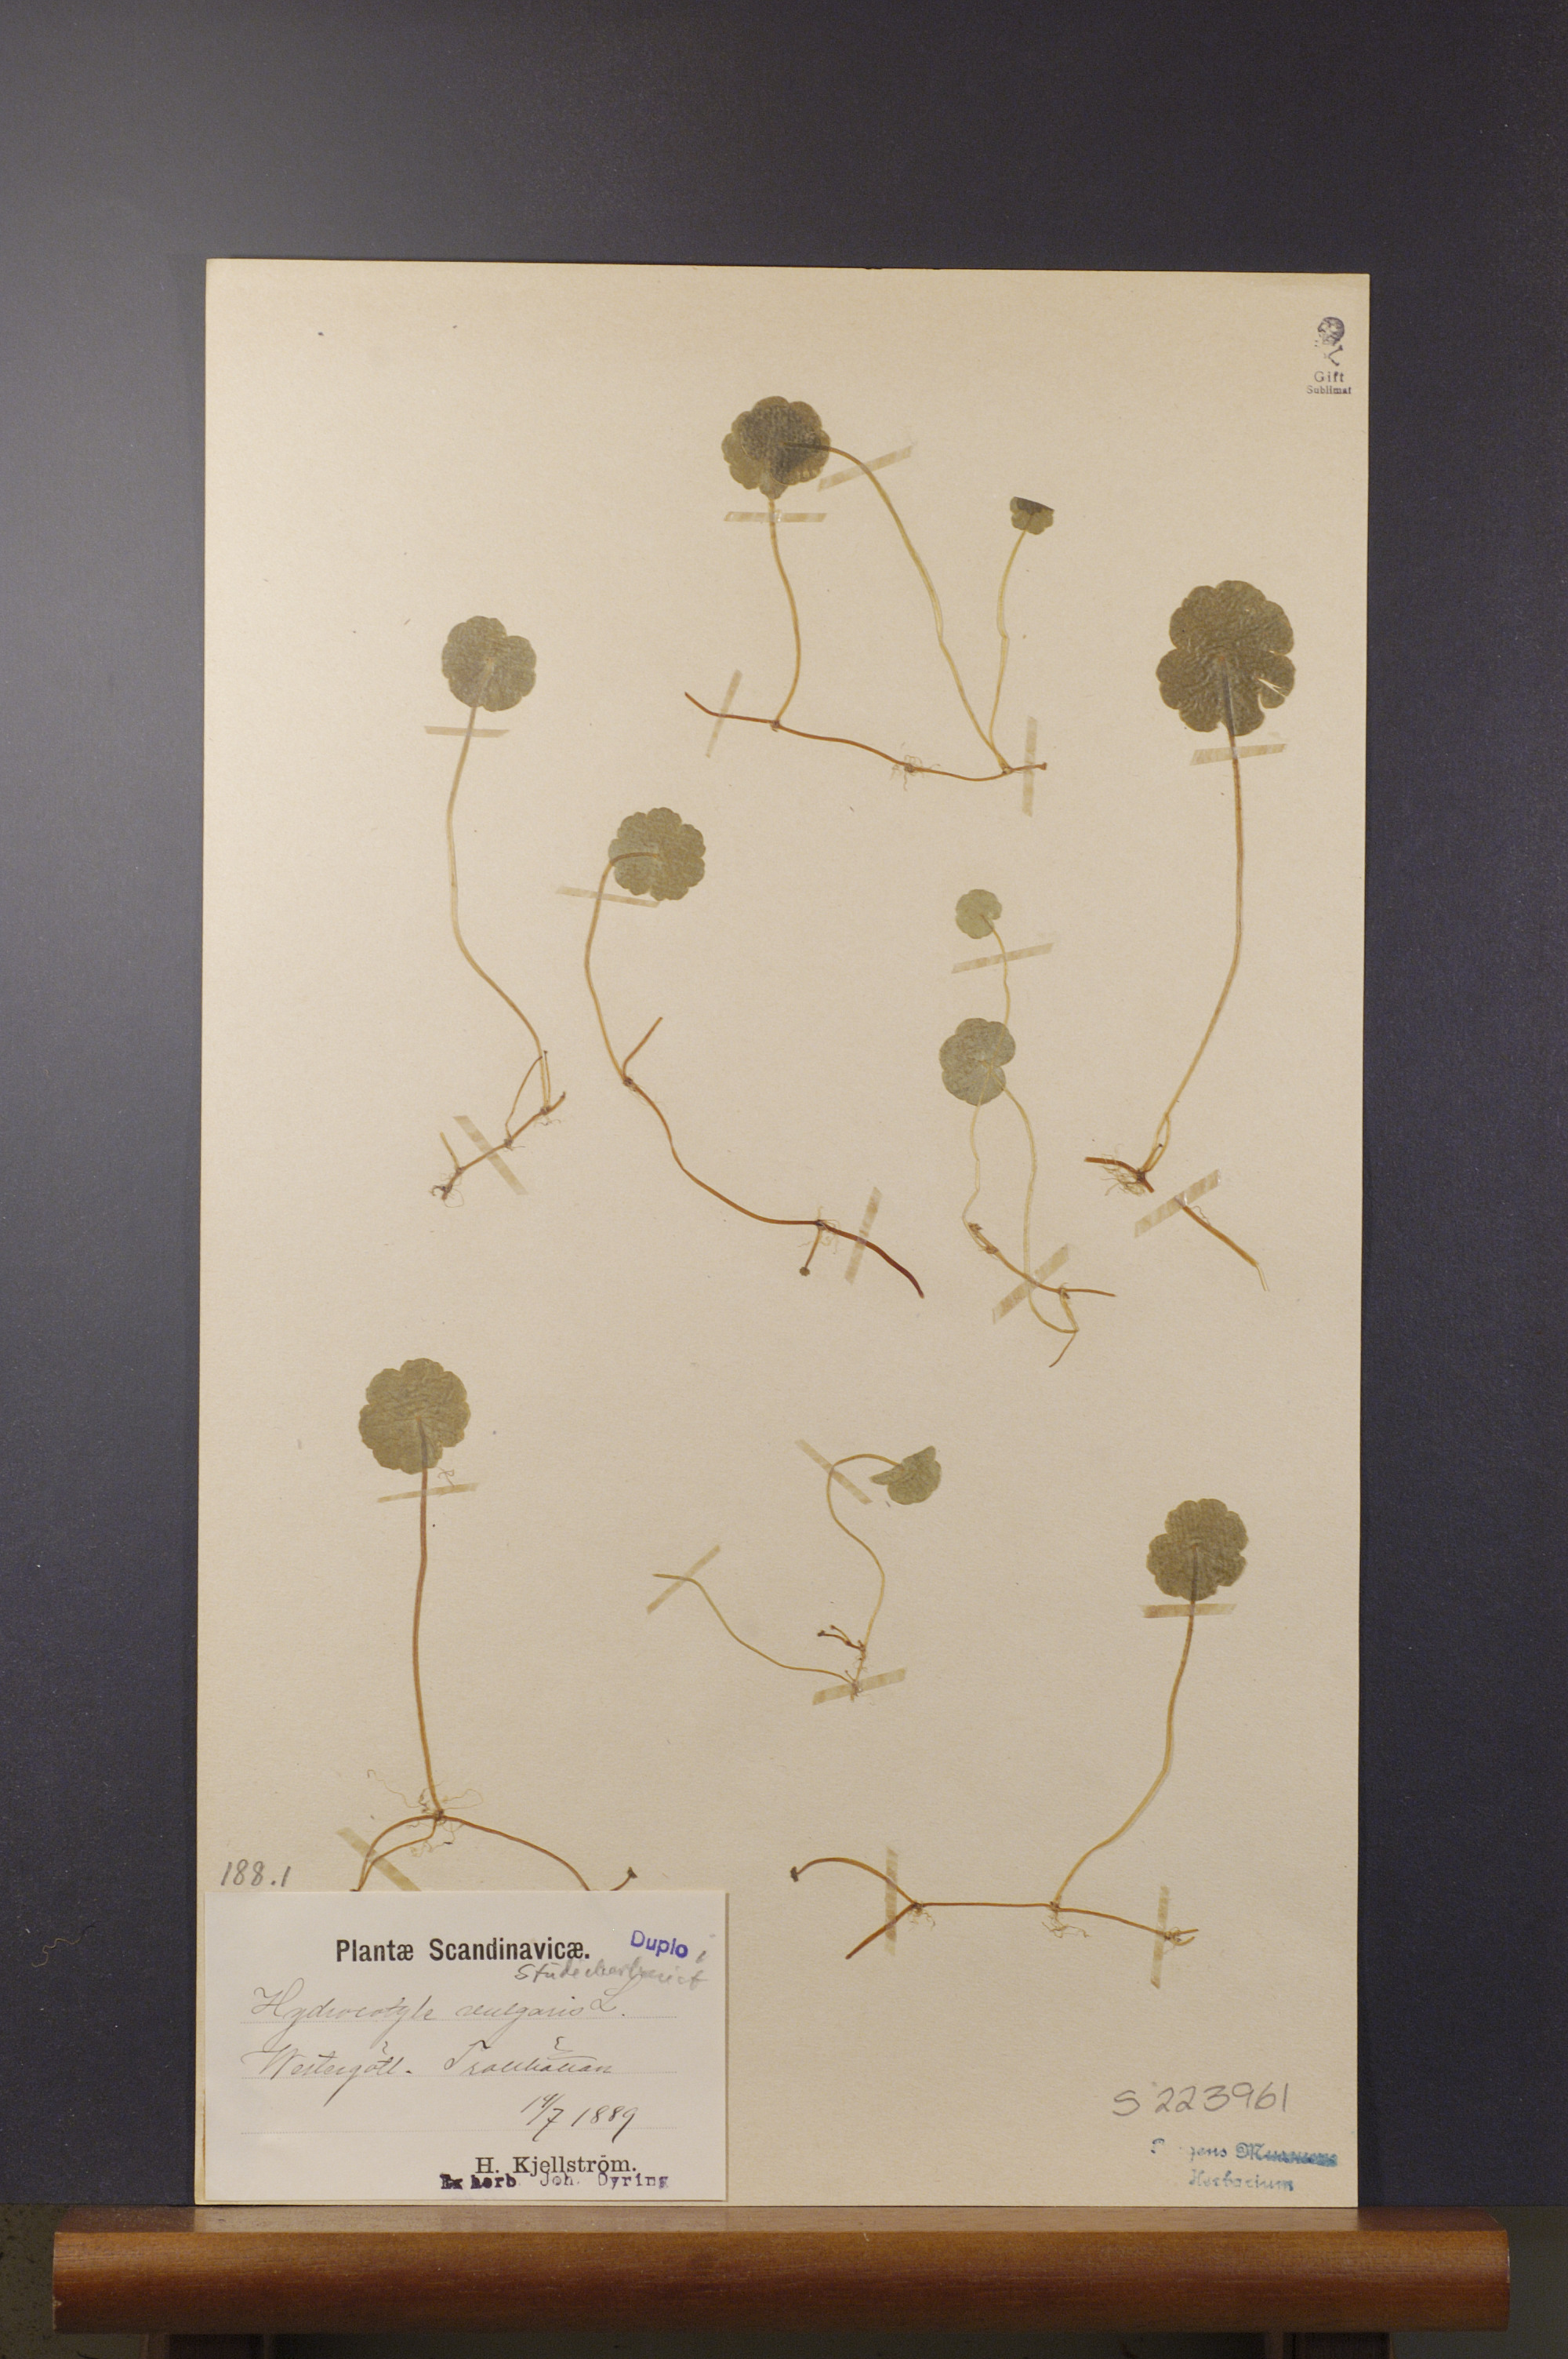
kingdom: Plantae
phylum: Tracheophyta
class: Magnoliopsida
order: Apiales
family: Araliaceae
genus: Hydrocotyle
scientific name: Hydrocotyle vulgaris
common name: Marsh pennywort
